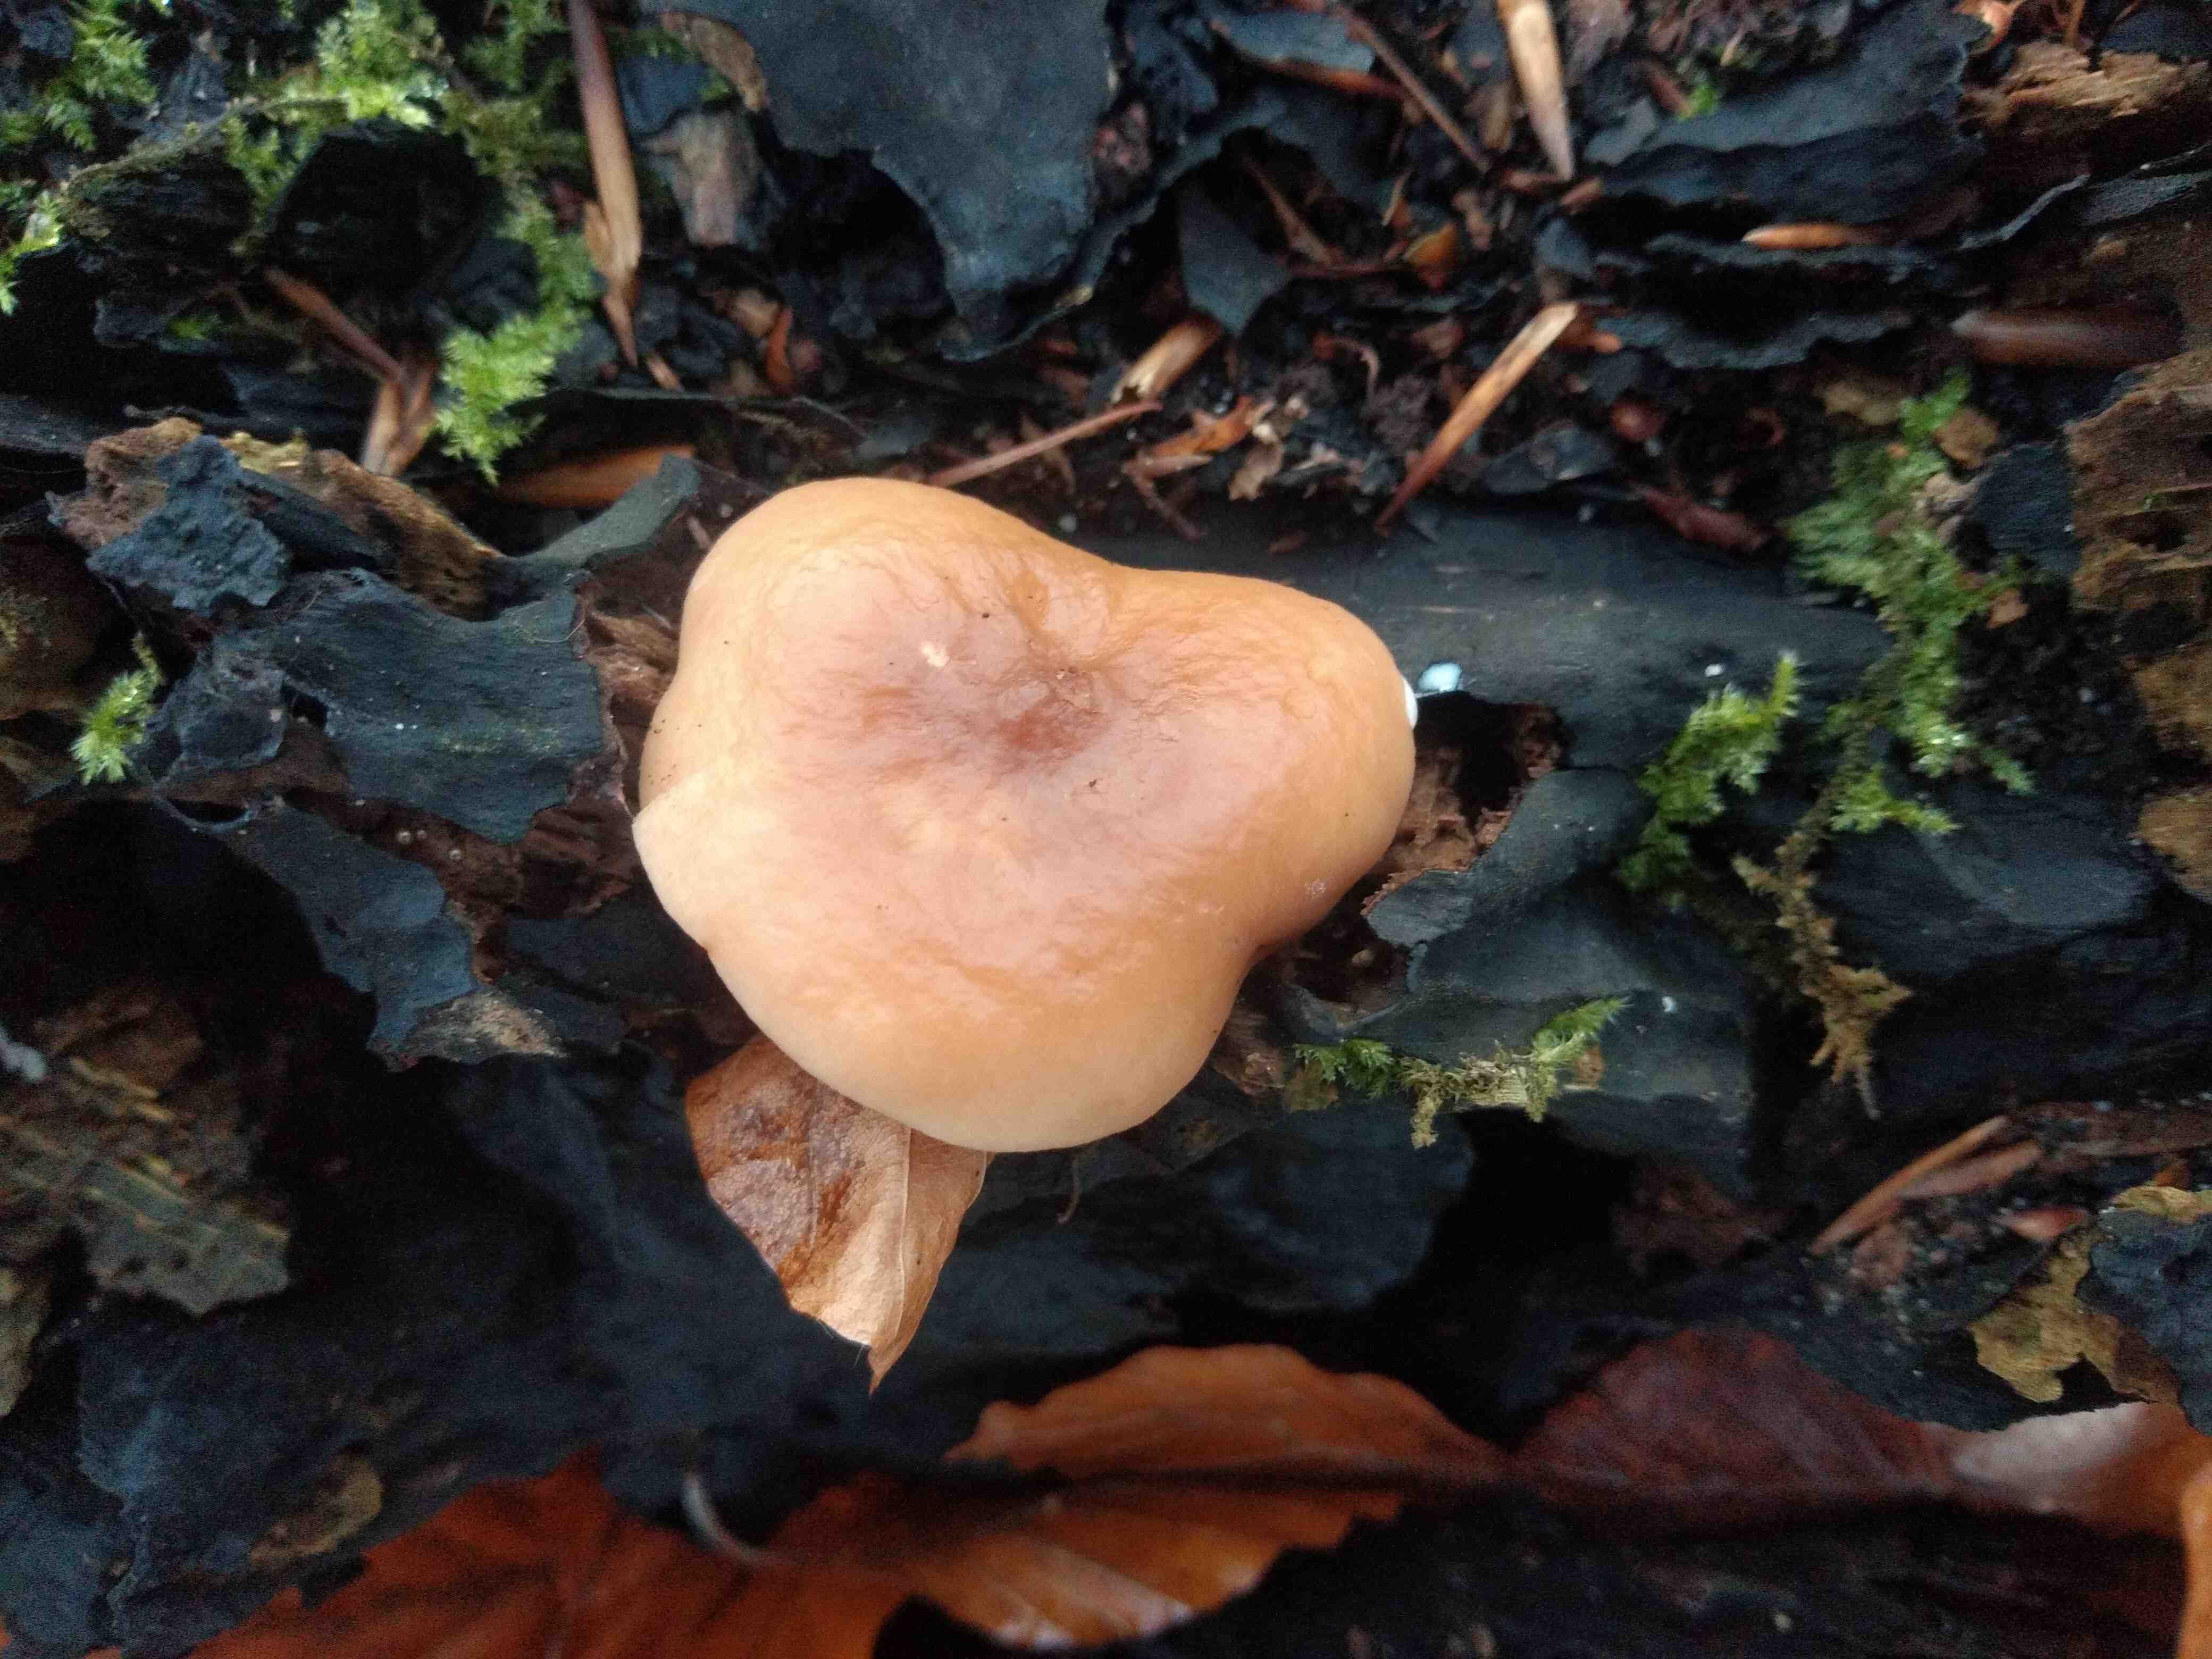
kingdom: Fungi
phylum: Basidiomycota
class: Agaricomycetes
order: Russulales
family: Russulaceae
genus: Lactarius
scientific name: Lactarius subdulcis
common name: sødlig mælkehat
